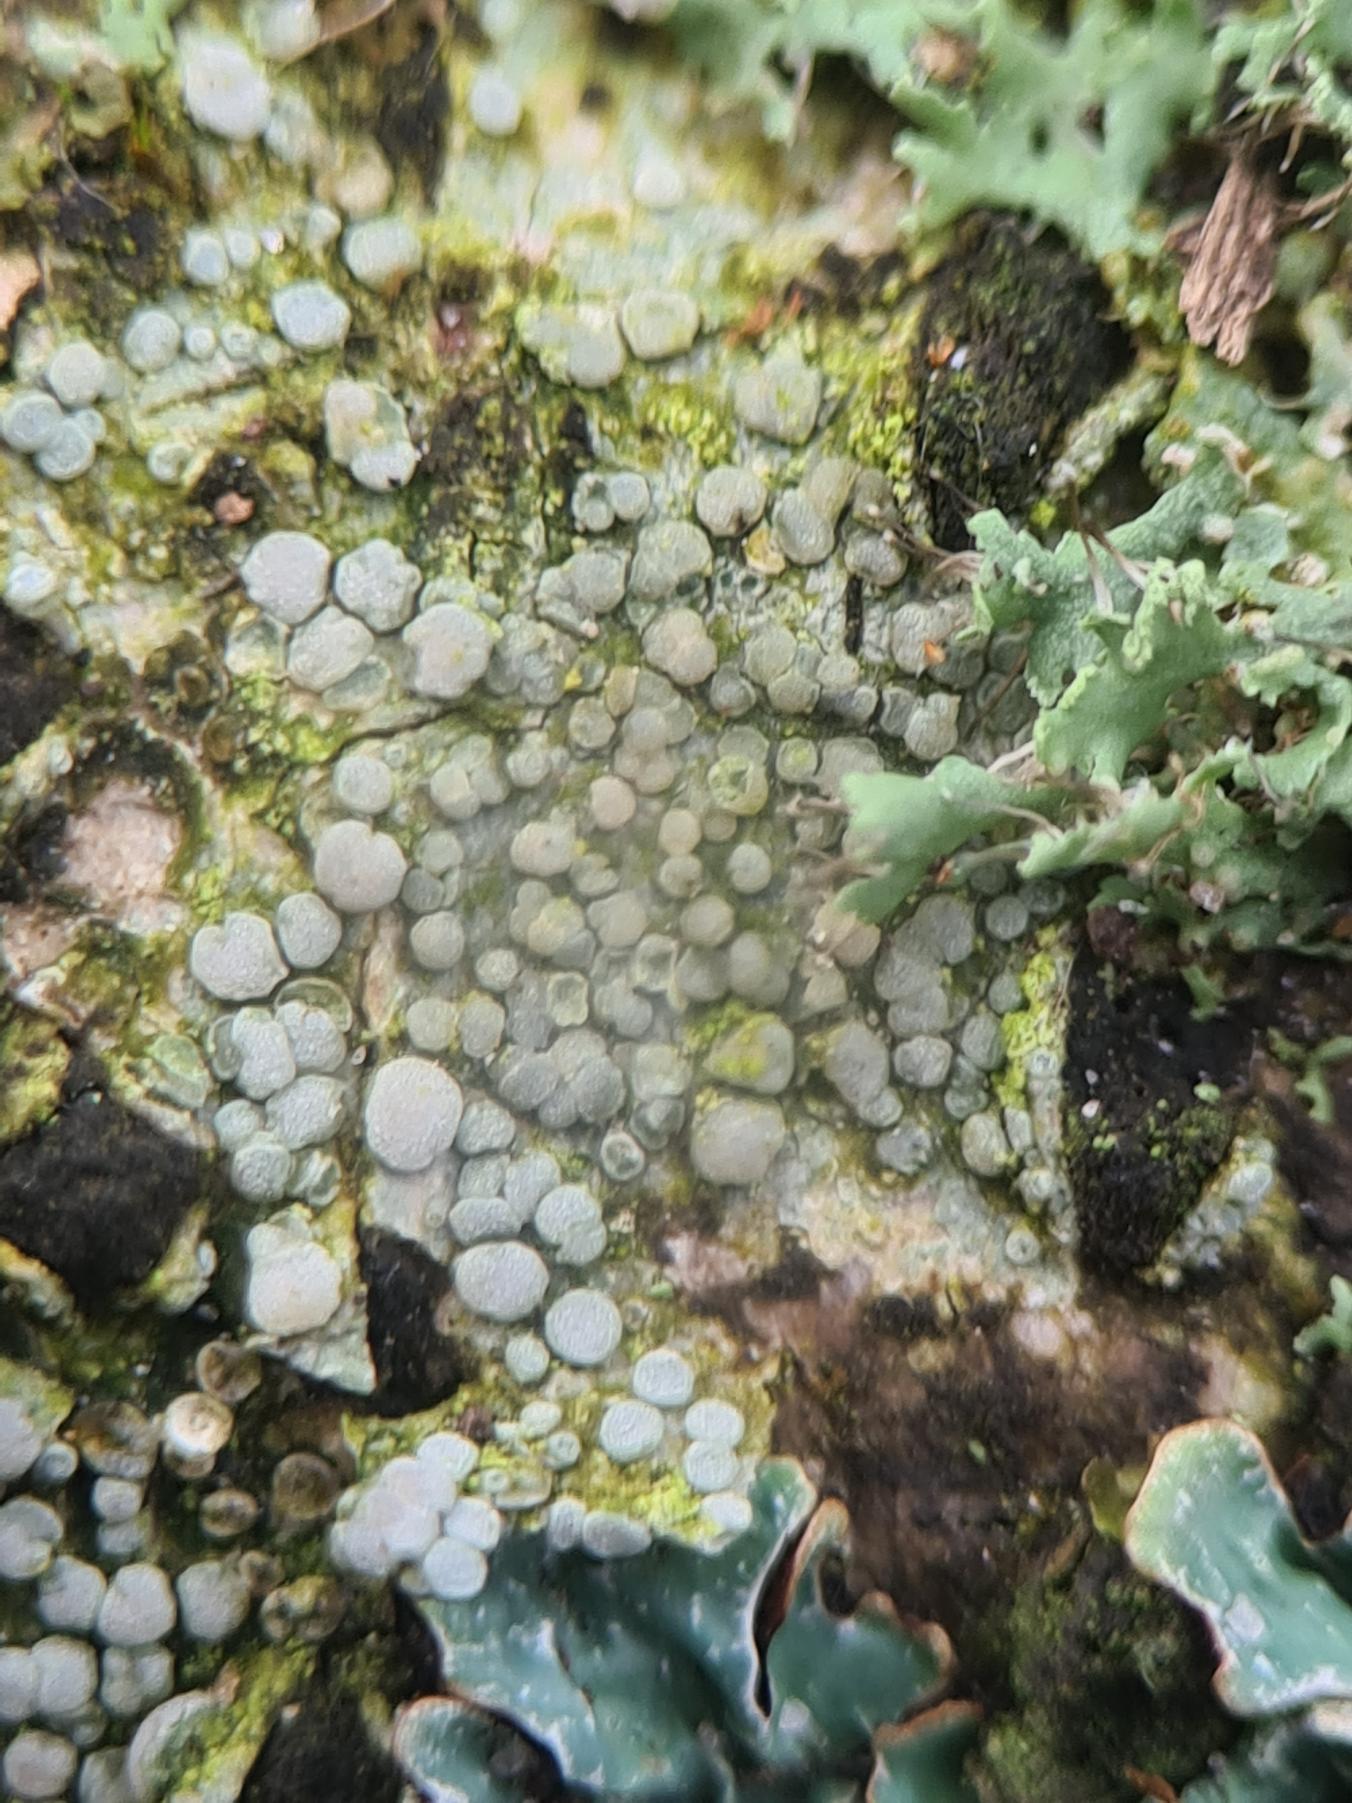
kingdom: Fungi
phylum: Ascomycota
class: Lecanoromycetes
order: Lecanorales
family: Lecanoraceae
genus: Glaucomaria
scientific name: Glaucomaria carpinea
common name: Hviddugget kantskivelav
